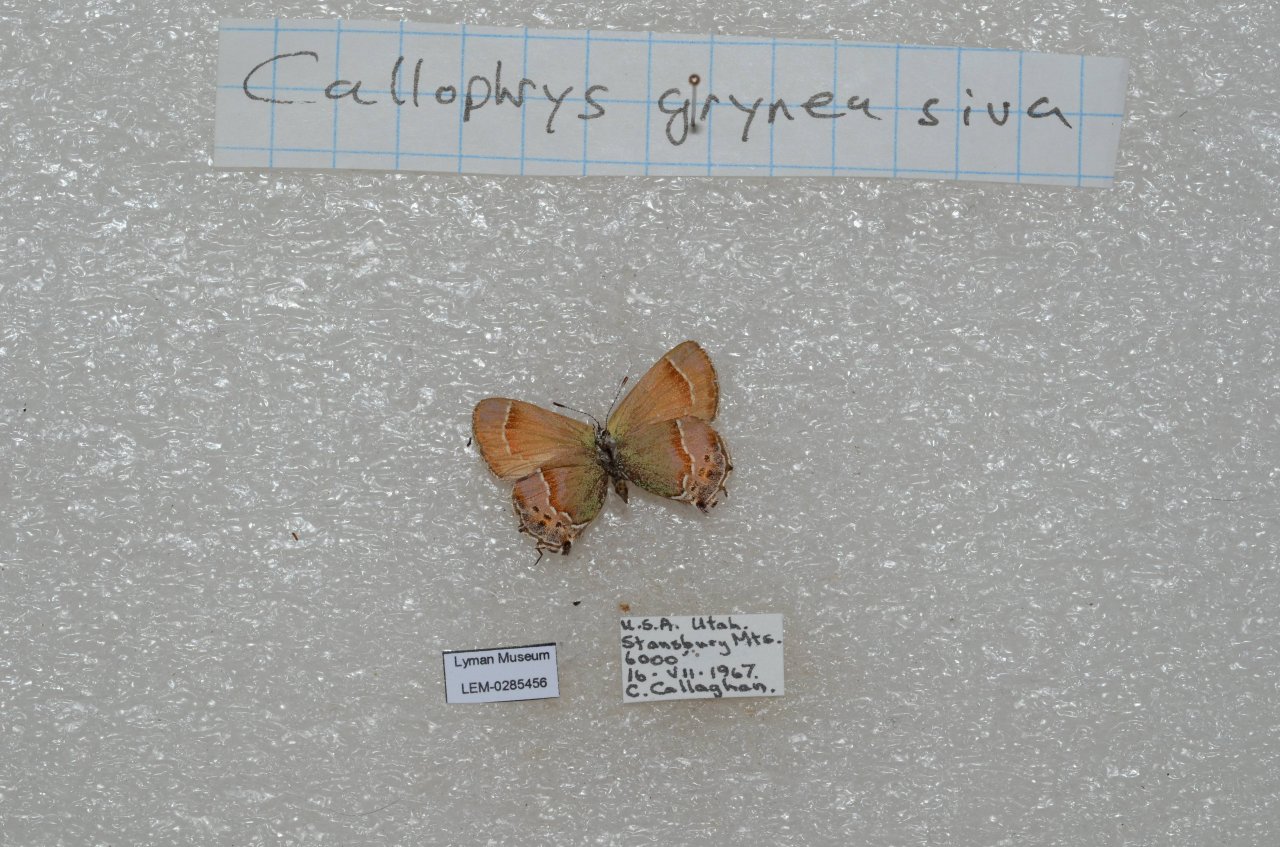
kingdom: Animalia
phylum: Arthropoda
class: Insecta
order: Lepidoptera
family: Lycaenidae
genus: Mitoura
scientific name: Mitoura gryneus
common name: Juniper Hairstreak
